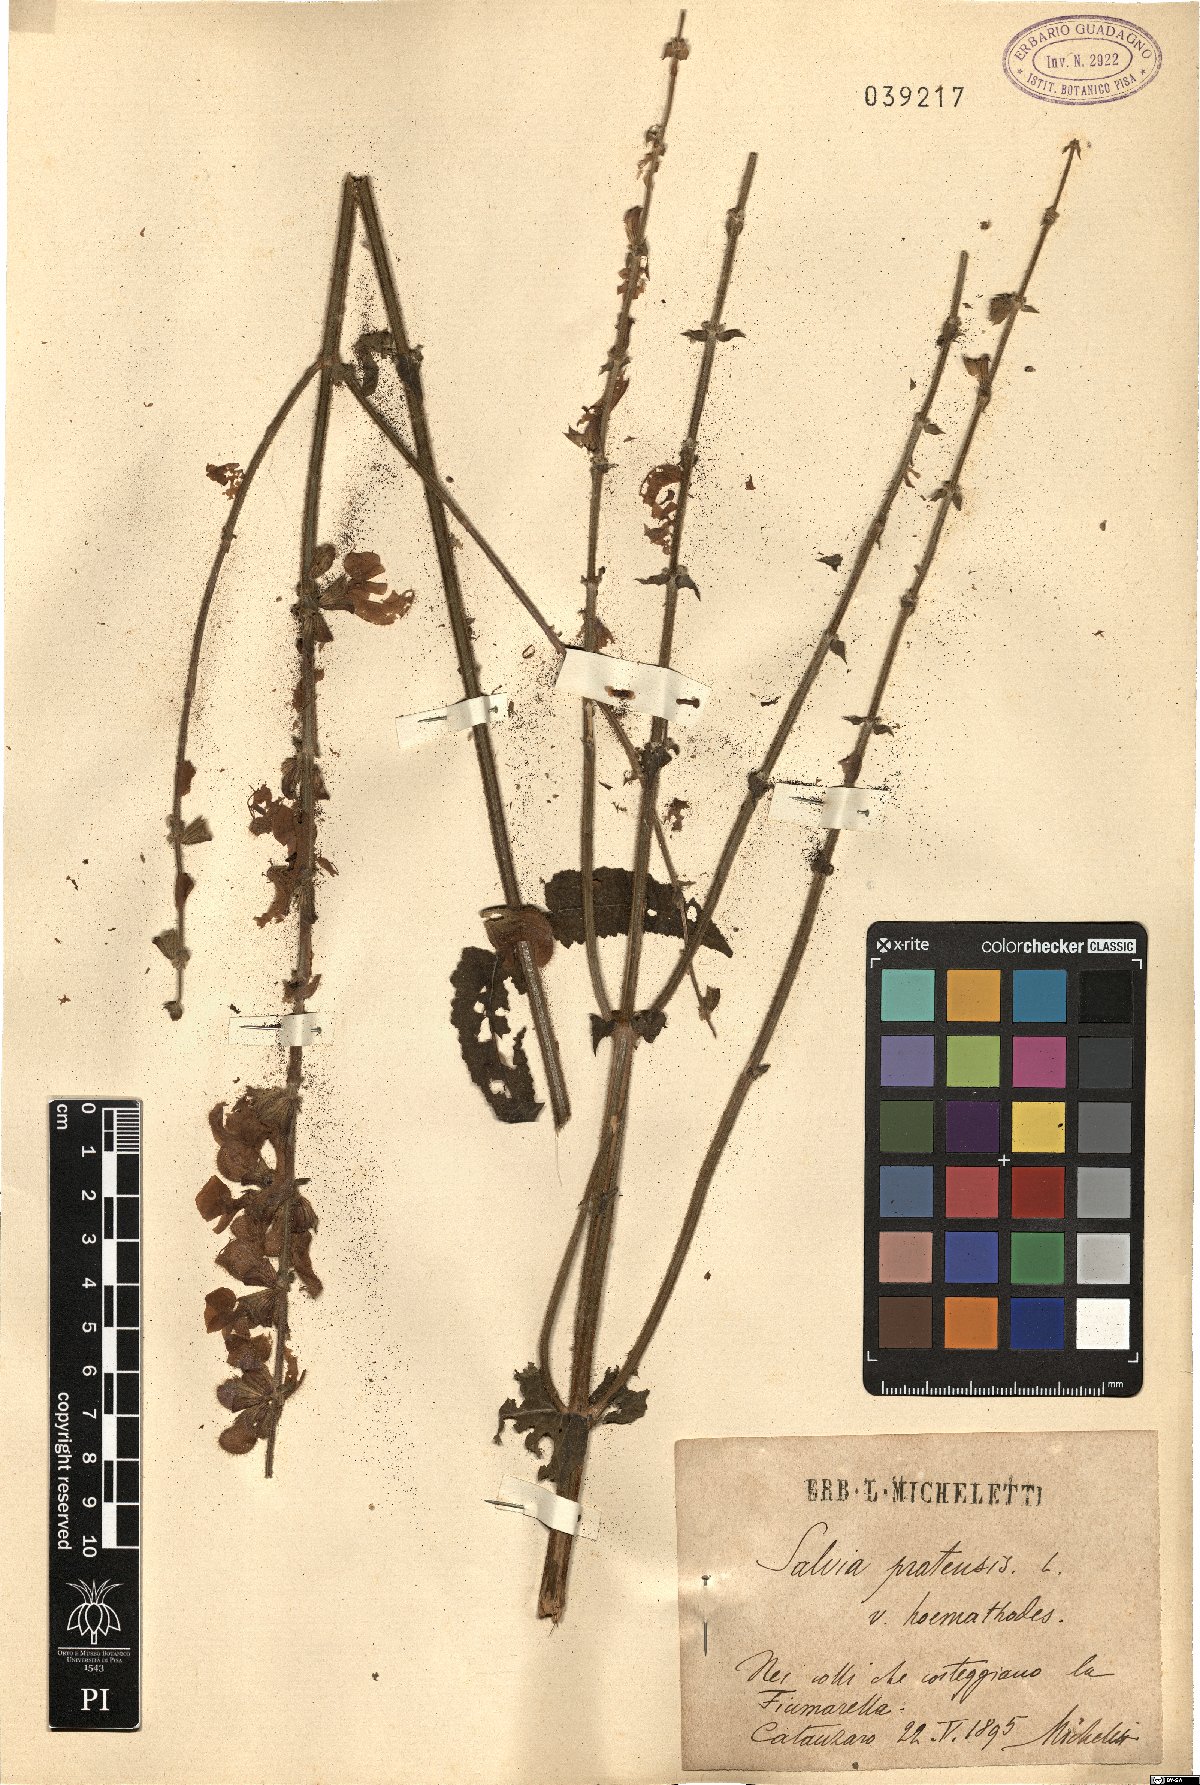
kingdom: Plantae
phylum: Tracheophyta
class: Magnoliopsida
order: Lamiales
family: Lamiaceae
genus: Salvia
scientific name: Salvia pratensis
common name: Meadow sage
